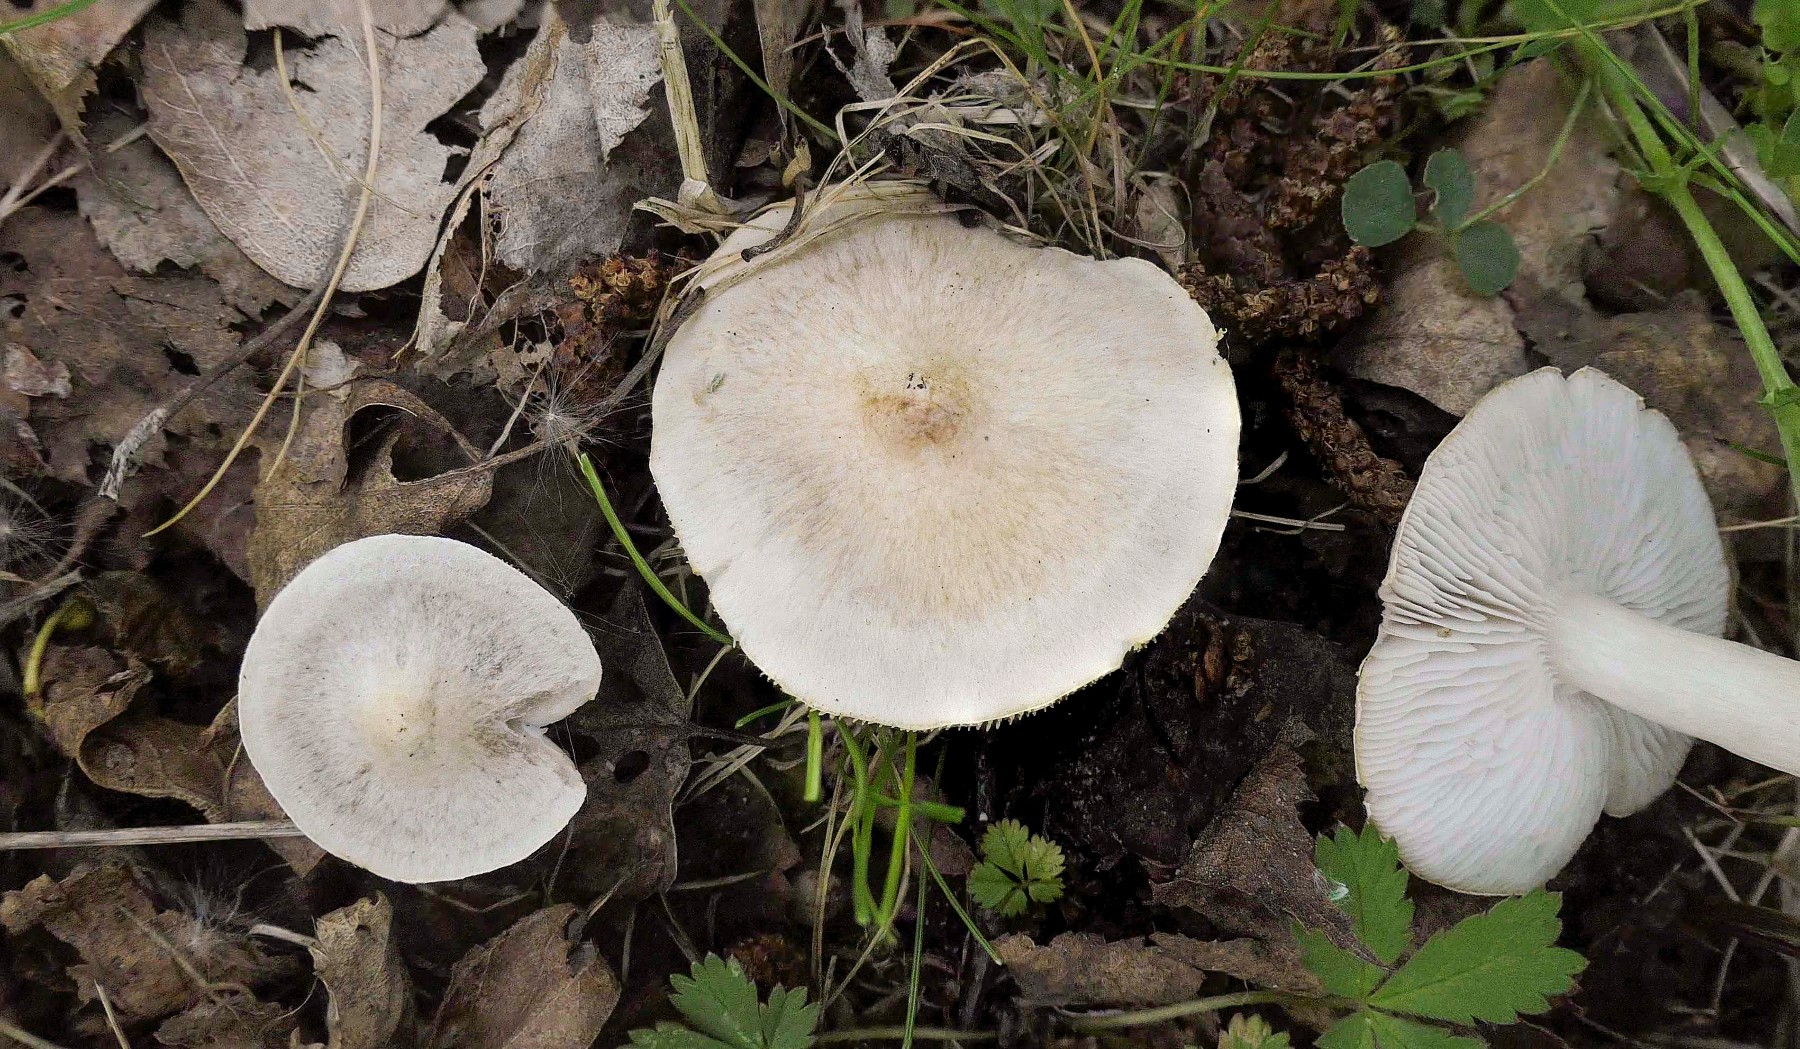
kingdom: Fungi
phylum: Basidiomycota
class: Agaricomycetes
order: Agaricales
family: Tricholomataceae
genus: Tricholoma
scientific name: Tricholoma argyraceum
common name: spids ridderhat
